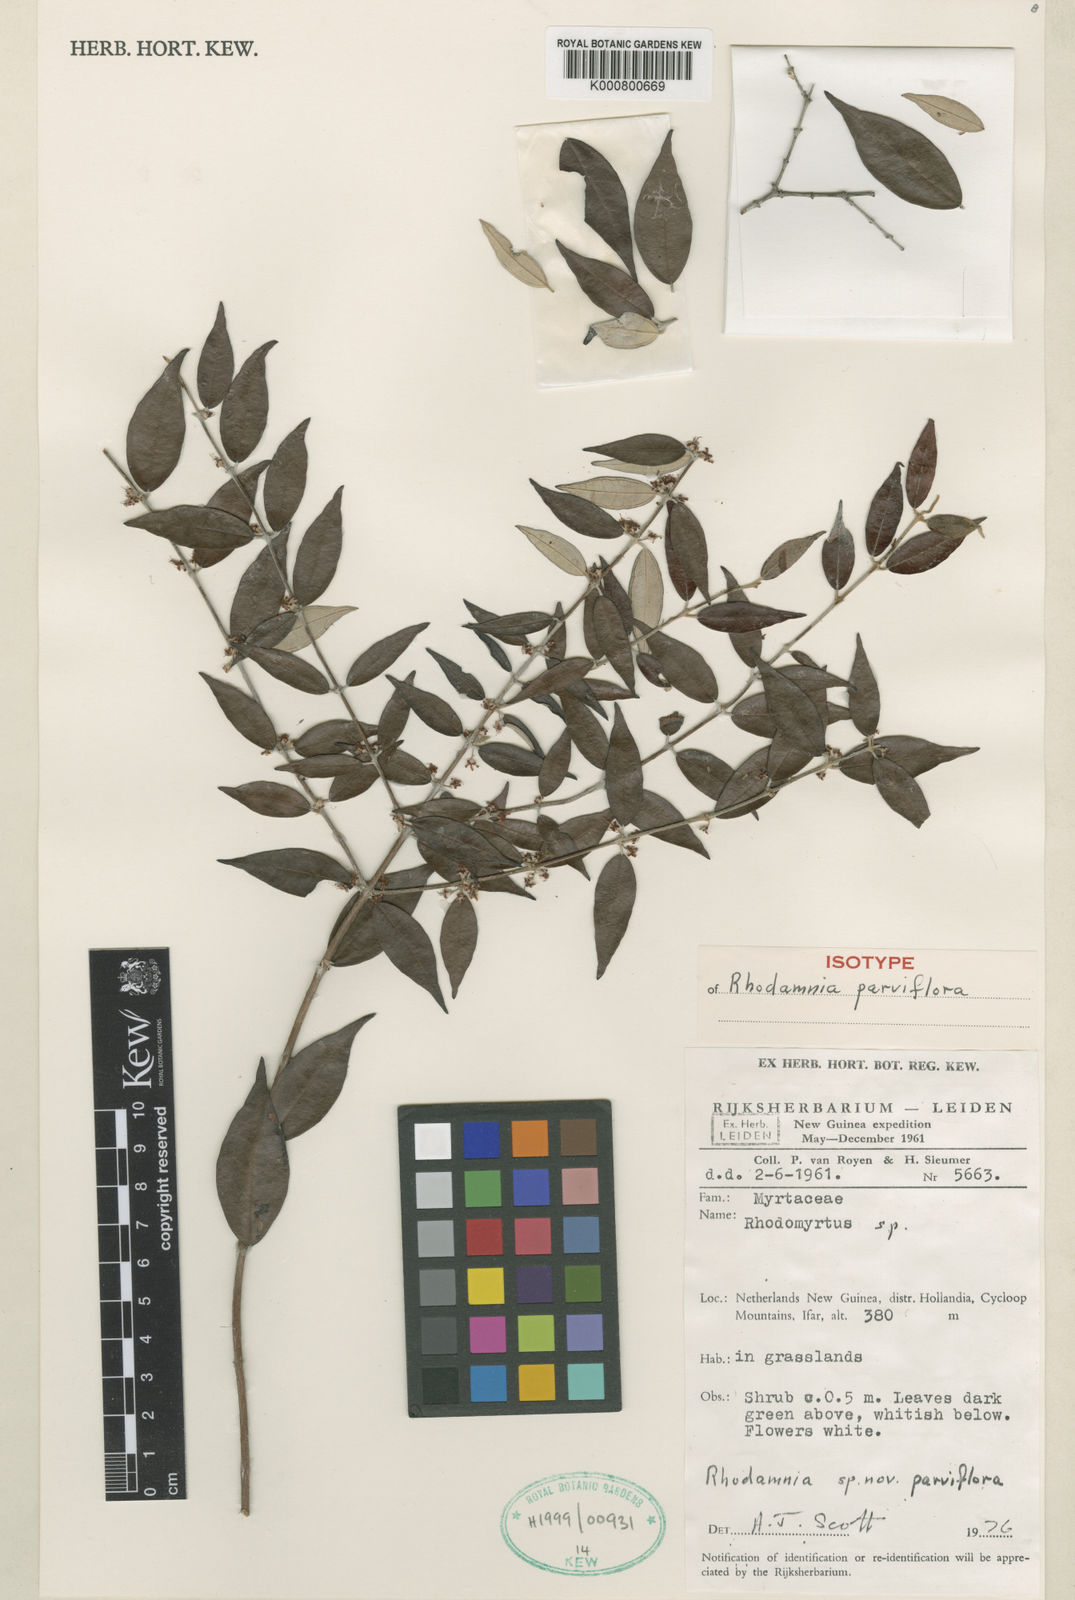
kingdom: Plantae
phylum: Tracheophyta
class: Magnoliopsida
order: Myrtales
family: Myrtaceae
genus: Rhodamnia
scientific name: Rhodamnia parviflora
